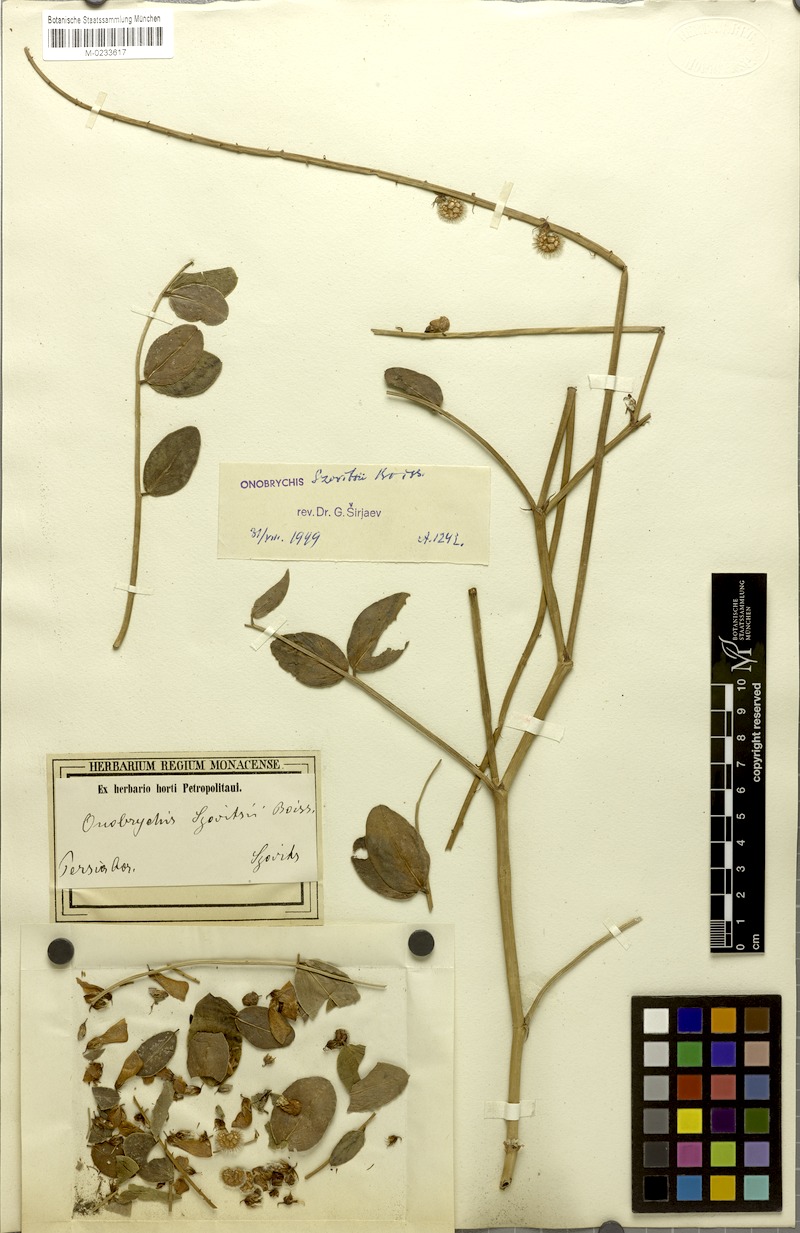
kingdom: Plantae
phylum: Tracheophyta
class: Magnoliopsida
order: Fabales
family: Fabaceae
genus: Onobrychis
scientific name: Onobrychis szovitsii
